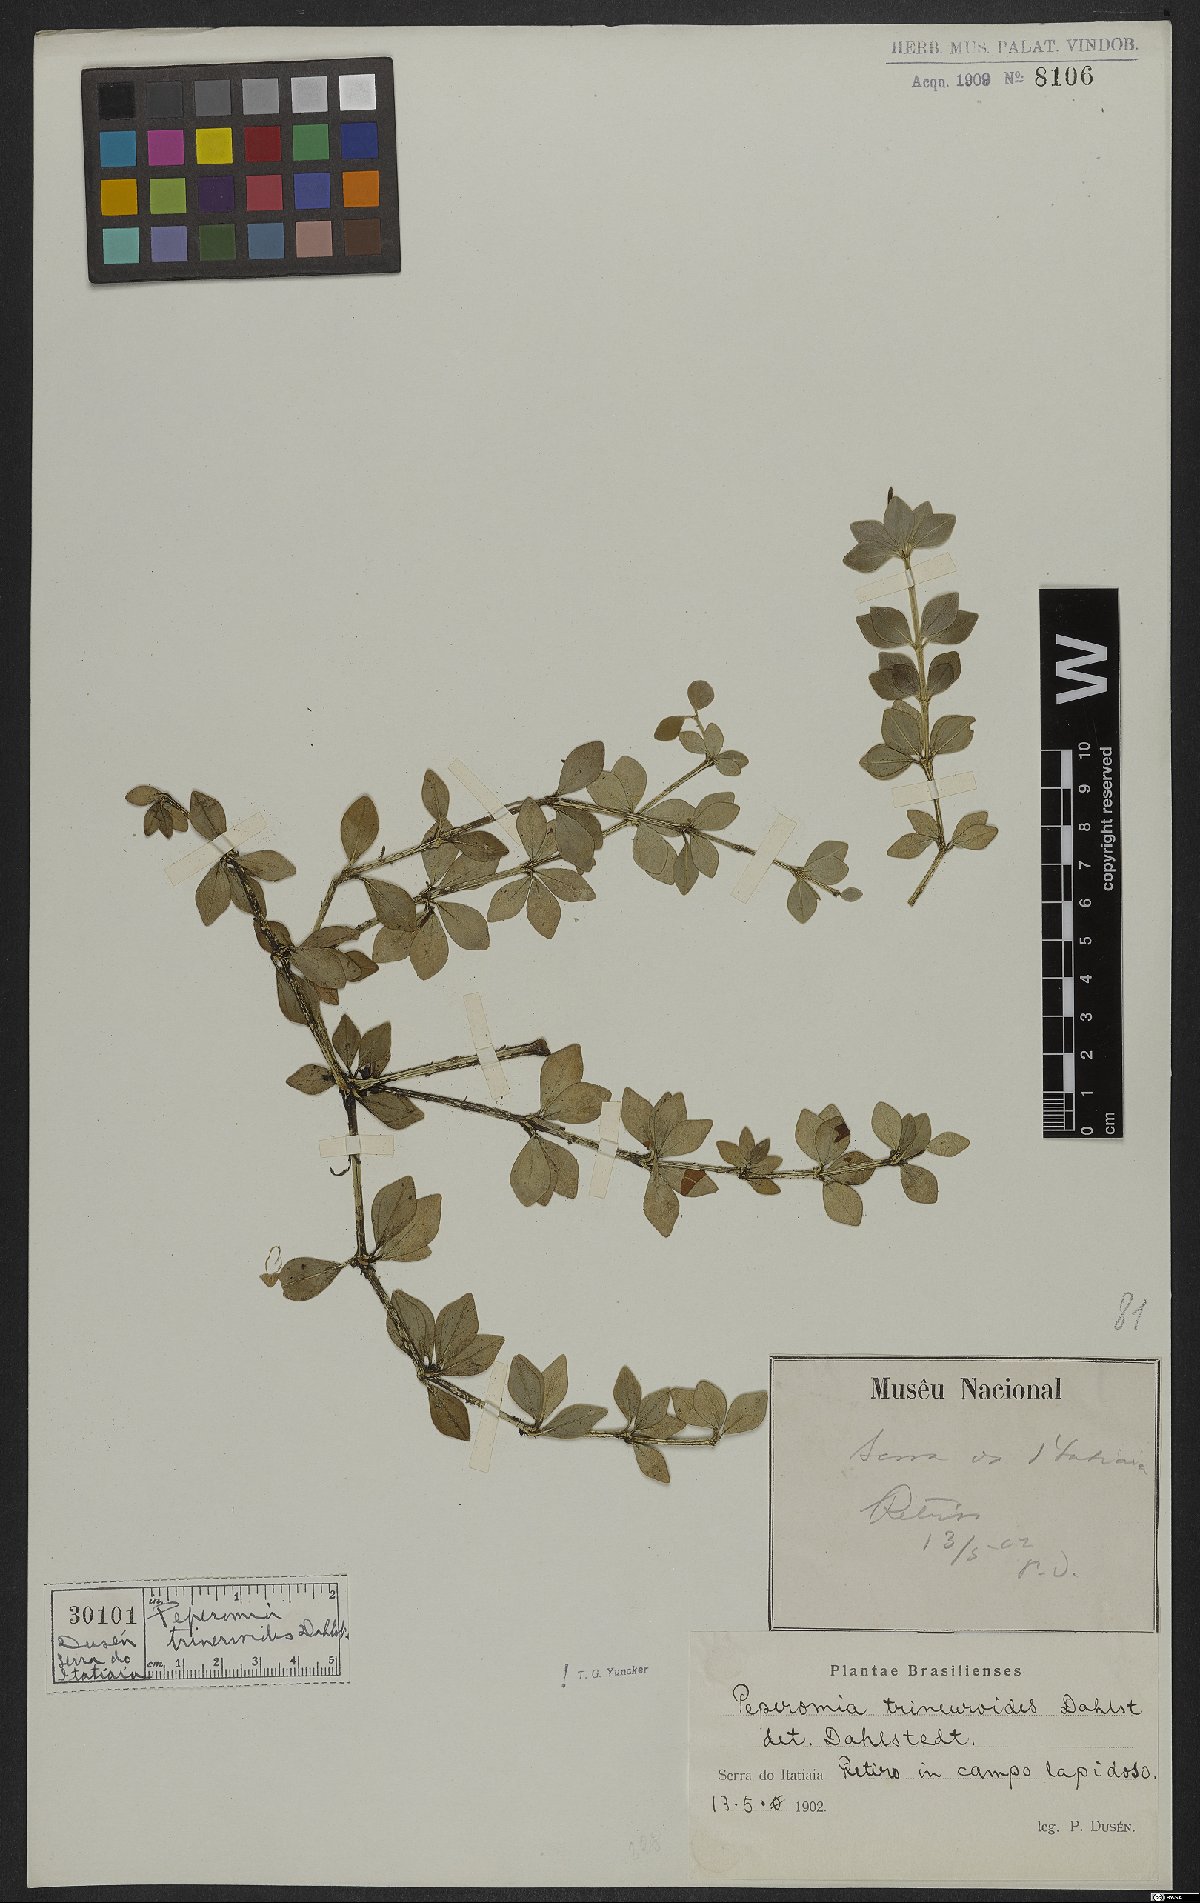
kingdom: Plantae
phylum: Tracheophyta
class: Magnoliopsida
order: Piperales
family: Piperaceae
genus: Peperomia
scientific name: Peperomia trineuroides
